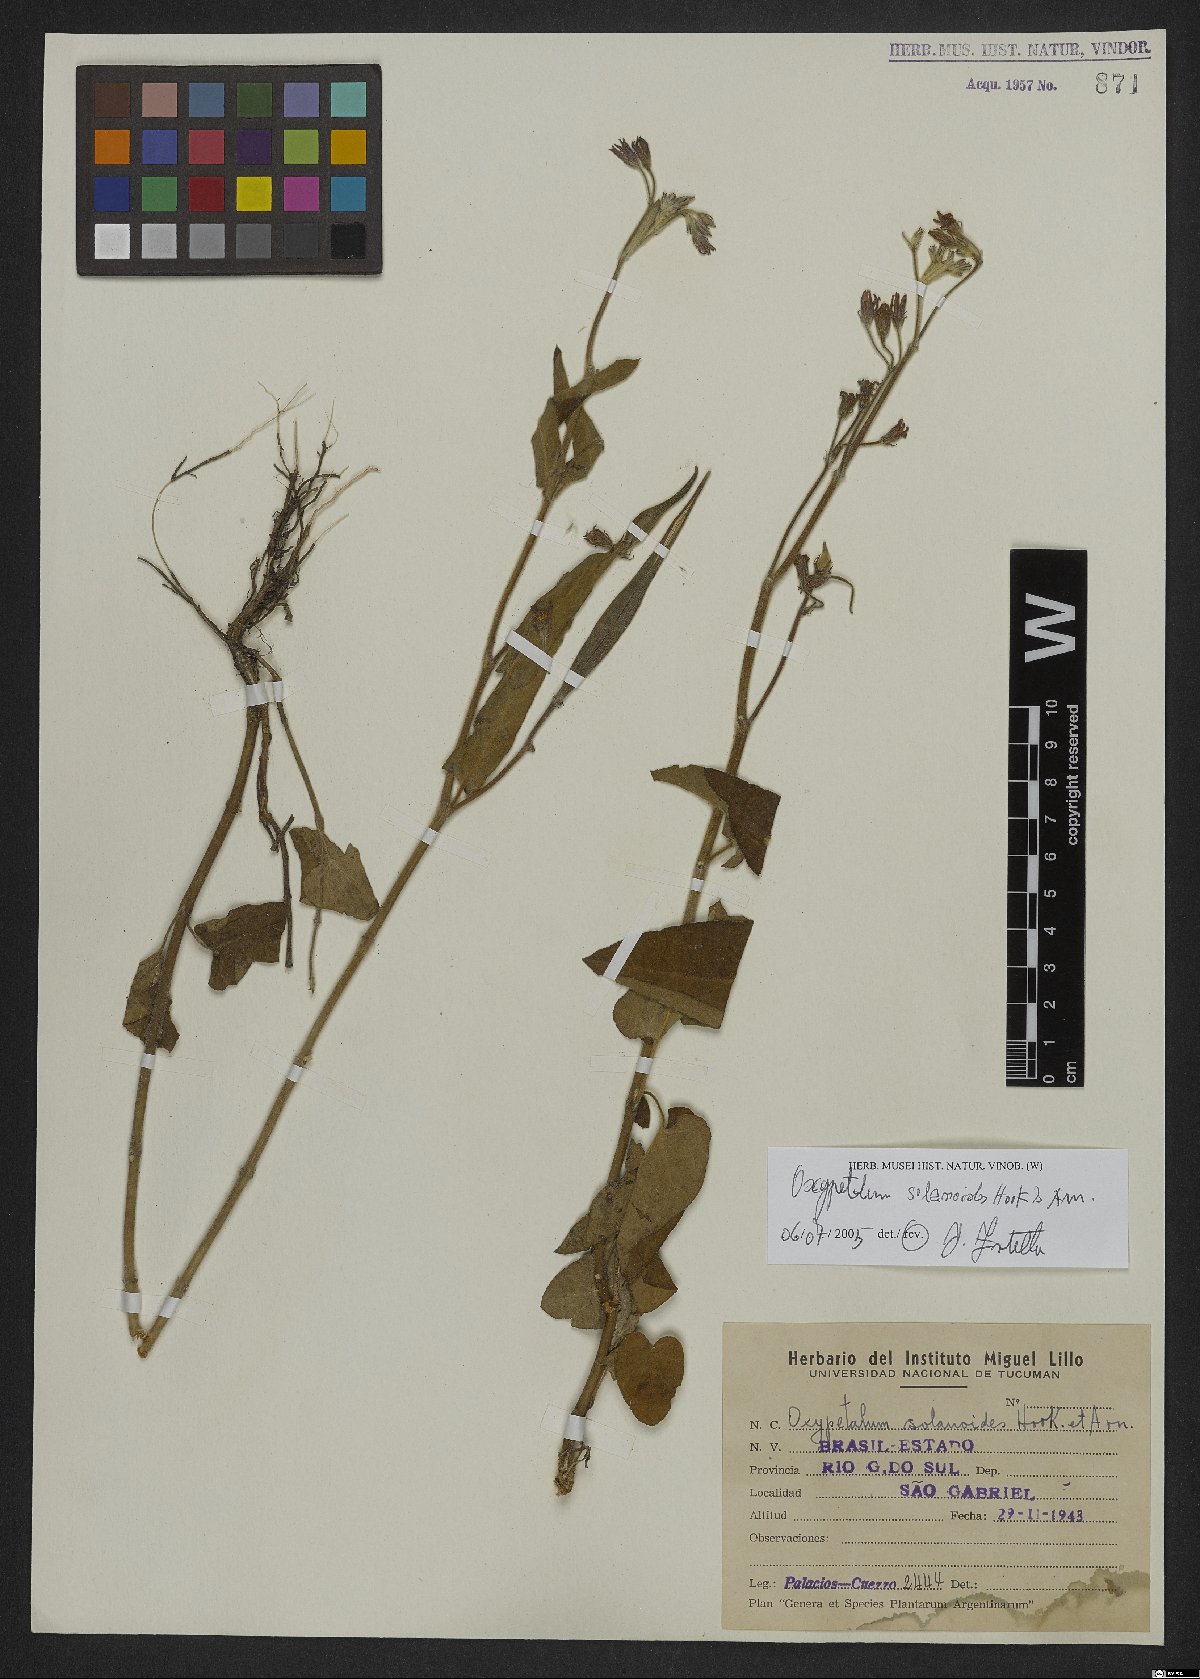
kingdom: Plantae
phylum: Tracheophyta
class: Magnoliopsida
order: Gentianales
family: Apocynaceae
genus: Oxypetalum
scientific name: Oxypetalum solanoides
